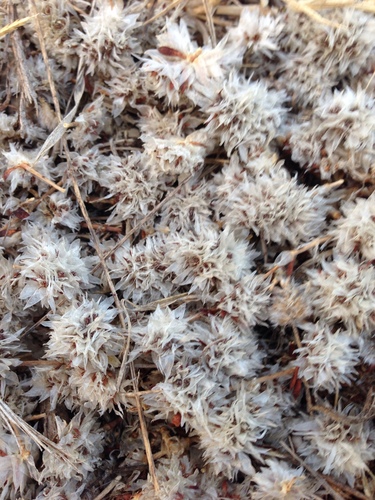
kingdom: Plantae
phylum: Tracheophyta
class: Magnoliopsida
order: Caryophyllales
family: Caryophyllaceae
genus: Paronychia
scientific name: Paronychia argentea
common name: Silver nailroot
